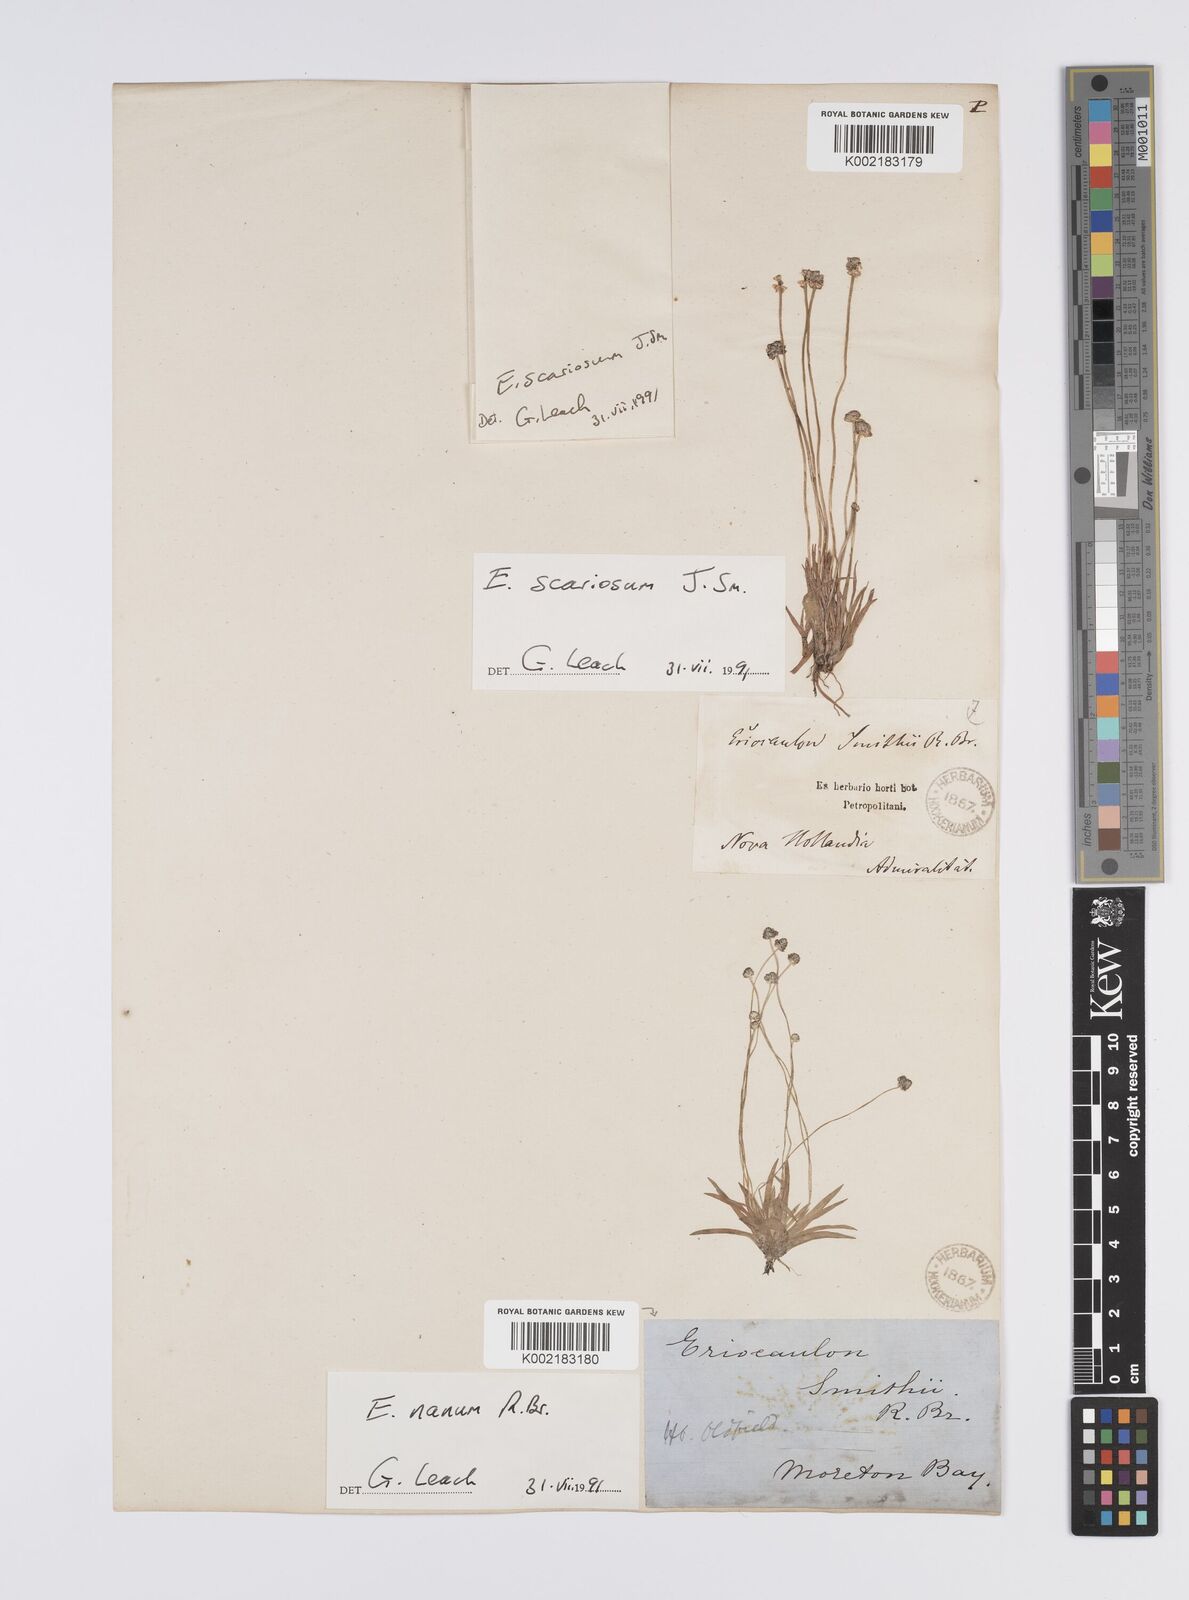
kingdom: Plantae
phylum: Tracheophyta
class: Liliopsida
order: Poales
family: Eriocaulaceae
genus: Eriocaulon
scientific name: Eriocaulon nanum
